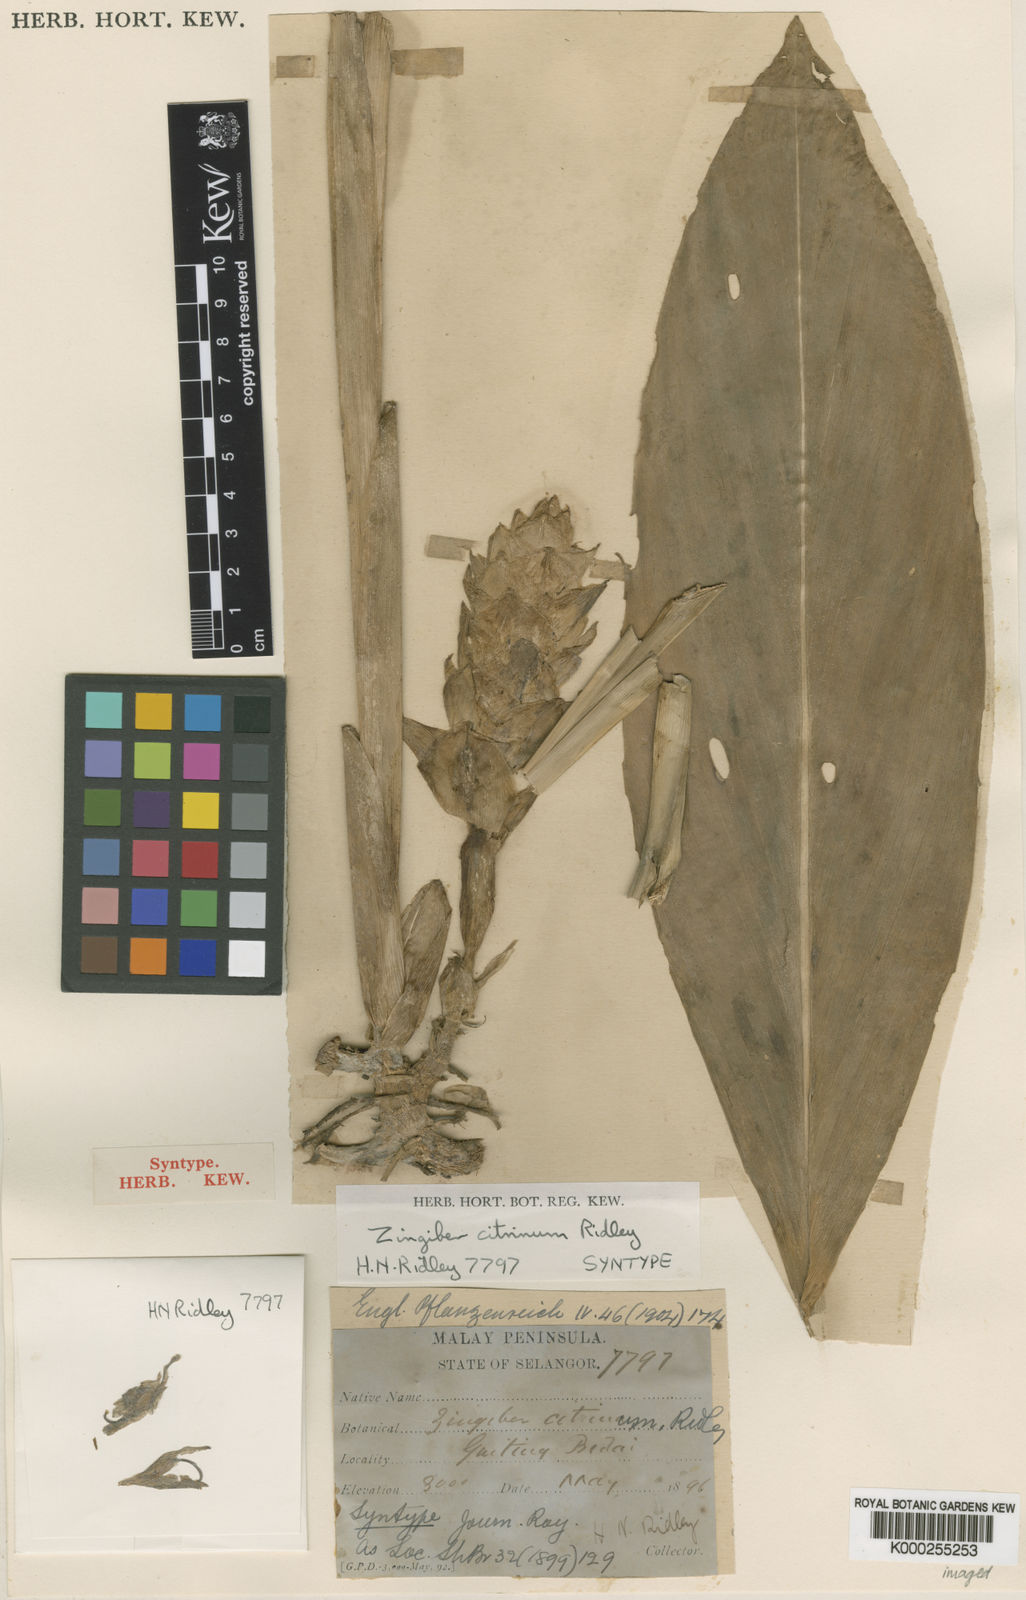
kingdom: Plantae
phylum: Tracheophyta
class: Liliopsida
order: Zingiberales
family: Zingiberaceae
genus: Zingiber
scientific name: Zingiber puberulum
